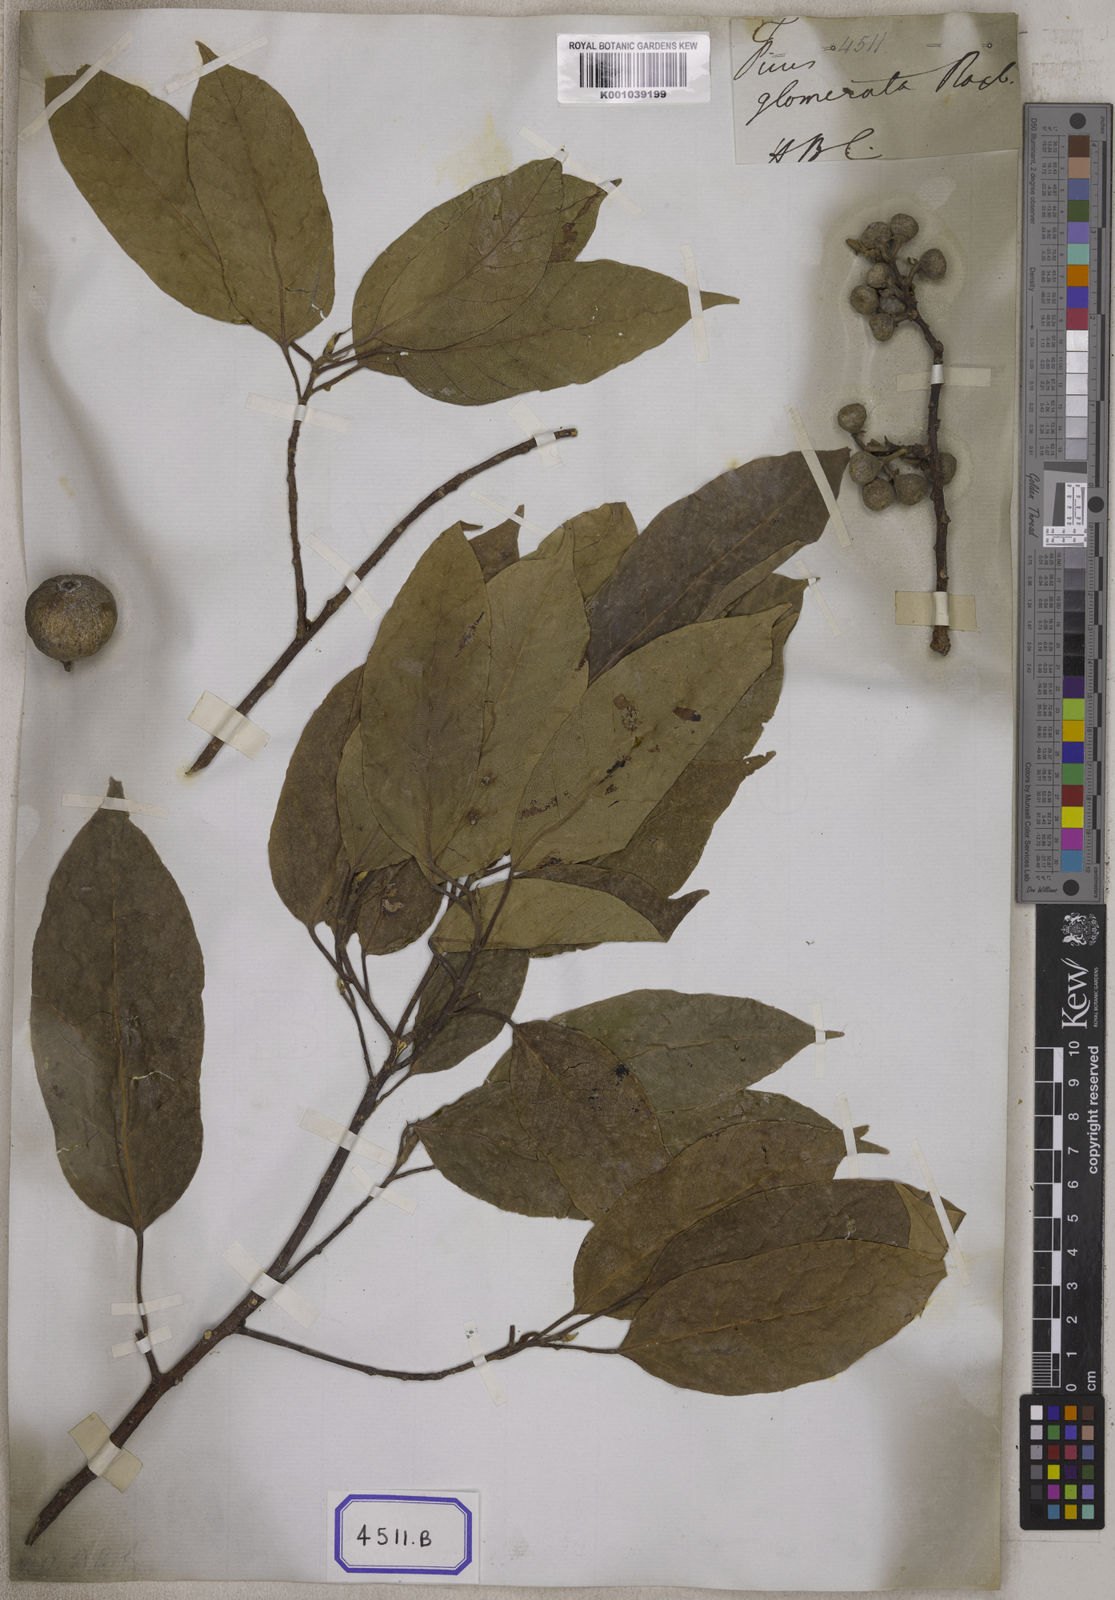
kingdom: Plantae
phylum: Tracheophyta
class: Magnoliopsida
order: Rosales
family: Moraceae
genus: Ficus
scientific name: Ficus racemosa
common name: Cluster fig
